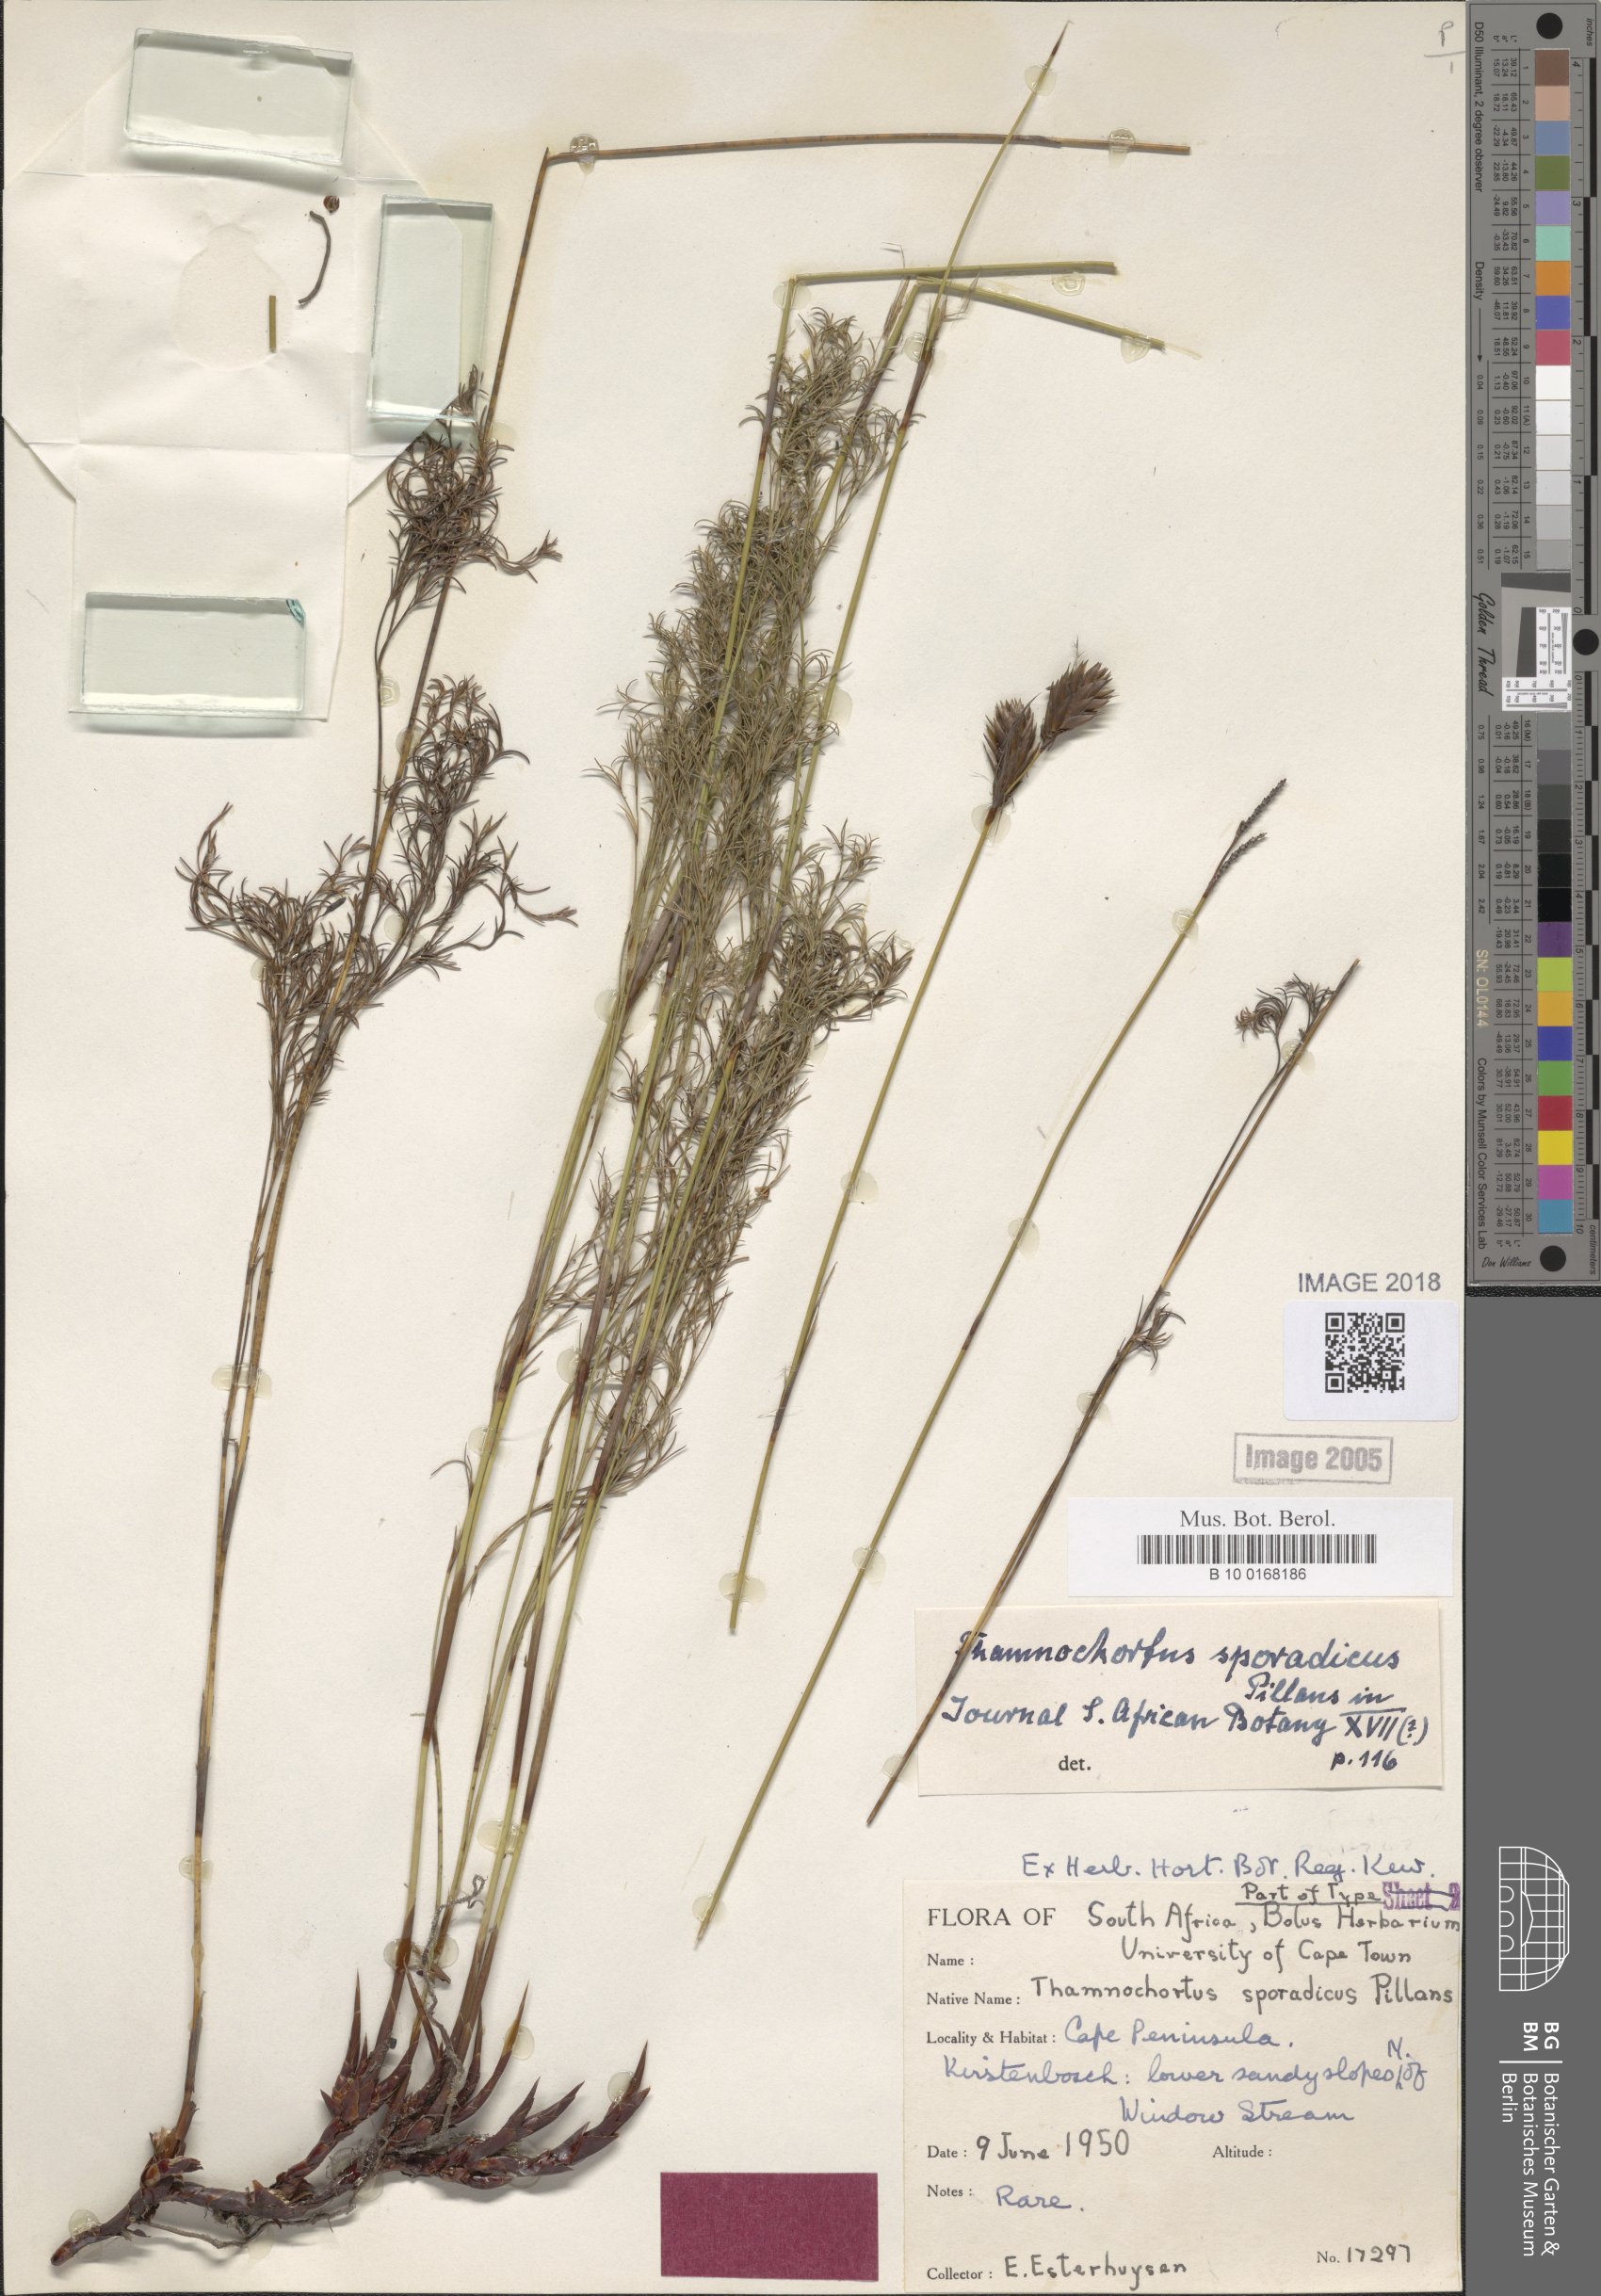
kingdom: Plantae
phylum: Tracheophyta
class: Liliopsida
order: Poales
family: Restionaceae
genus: Thamnochortus
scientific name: Thamnochortus sporadicus
